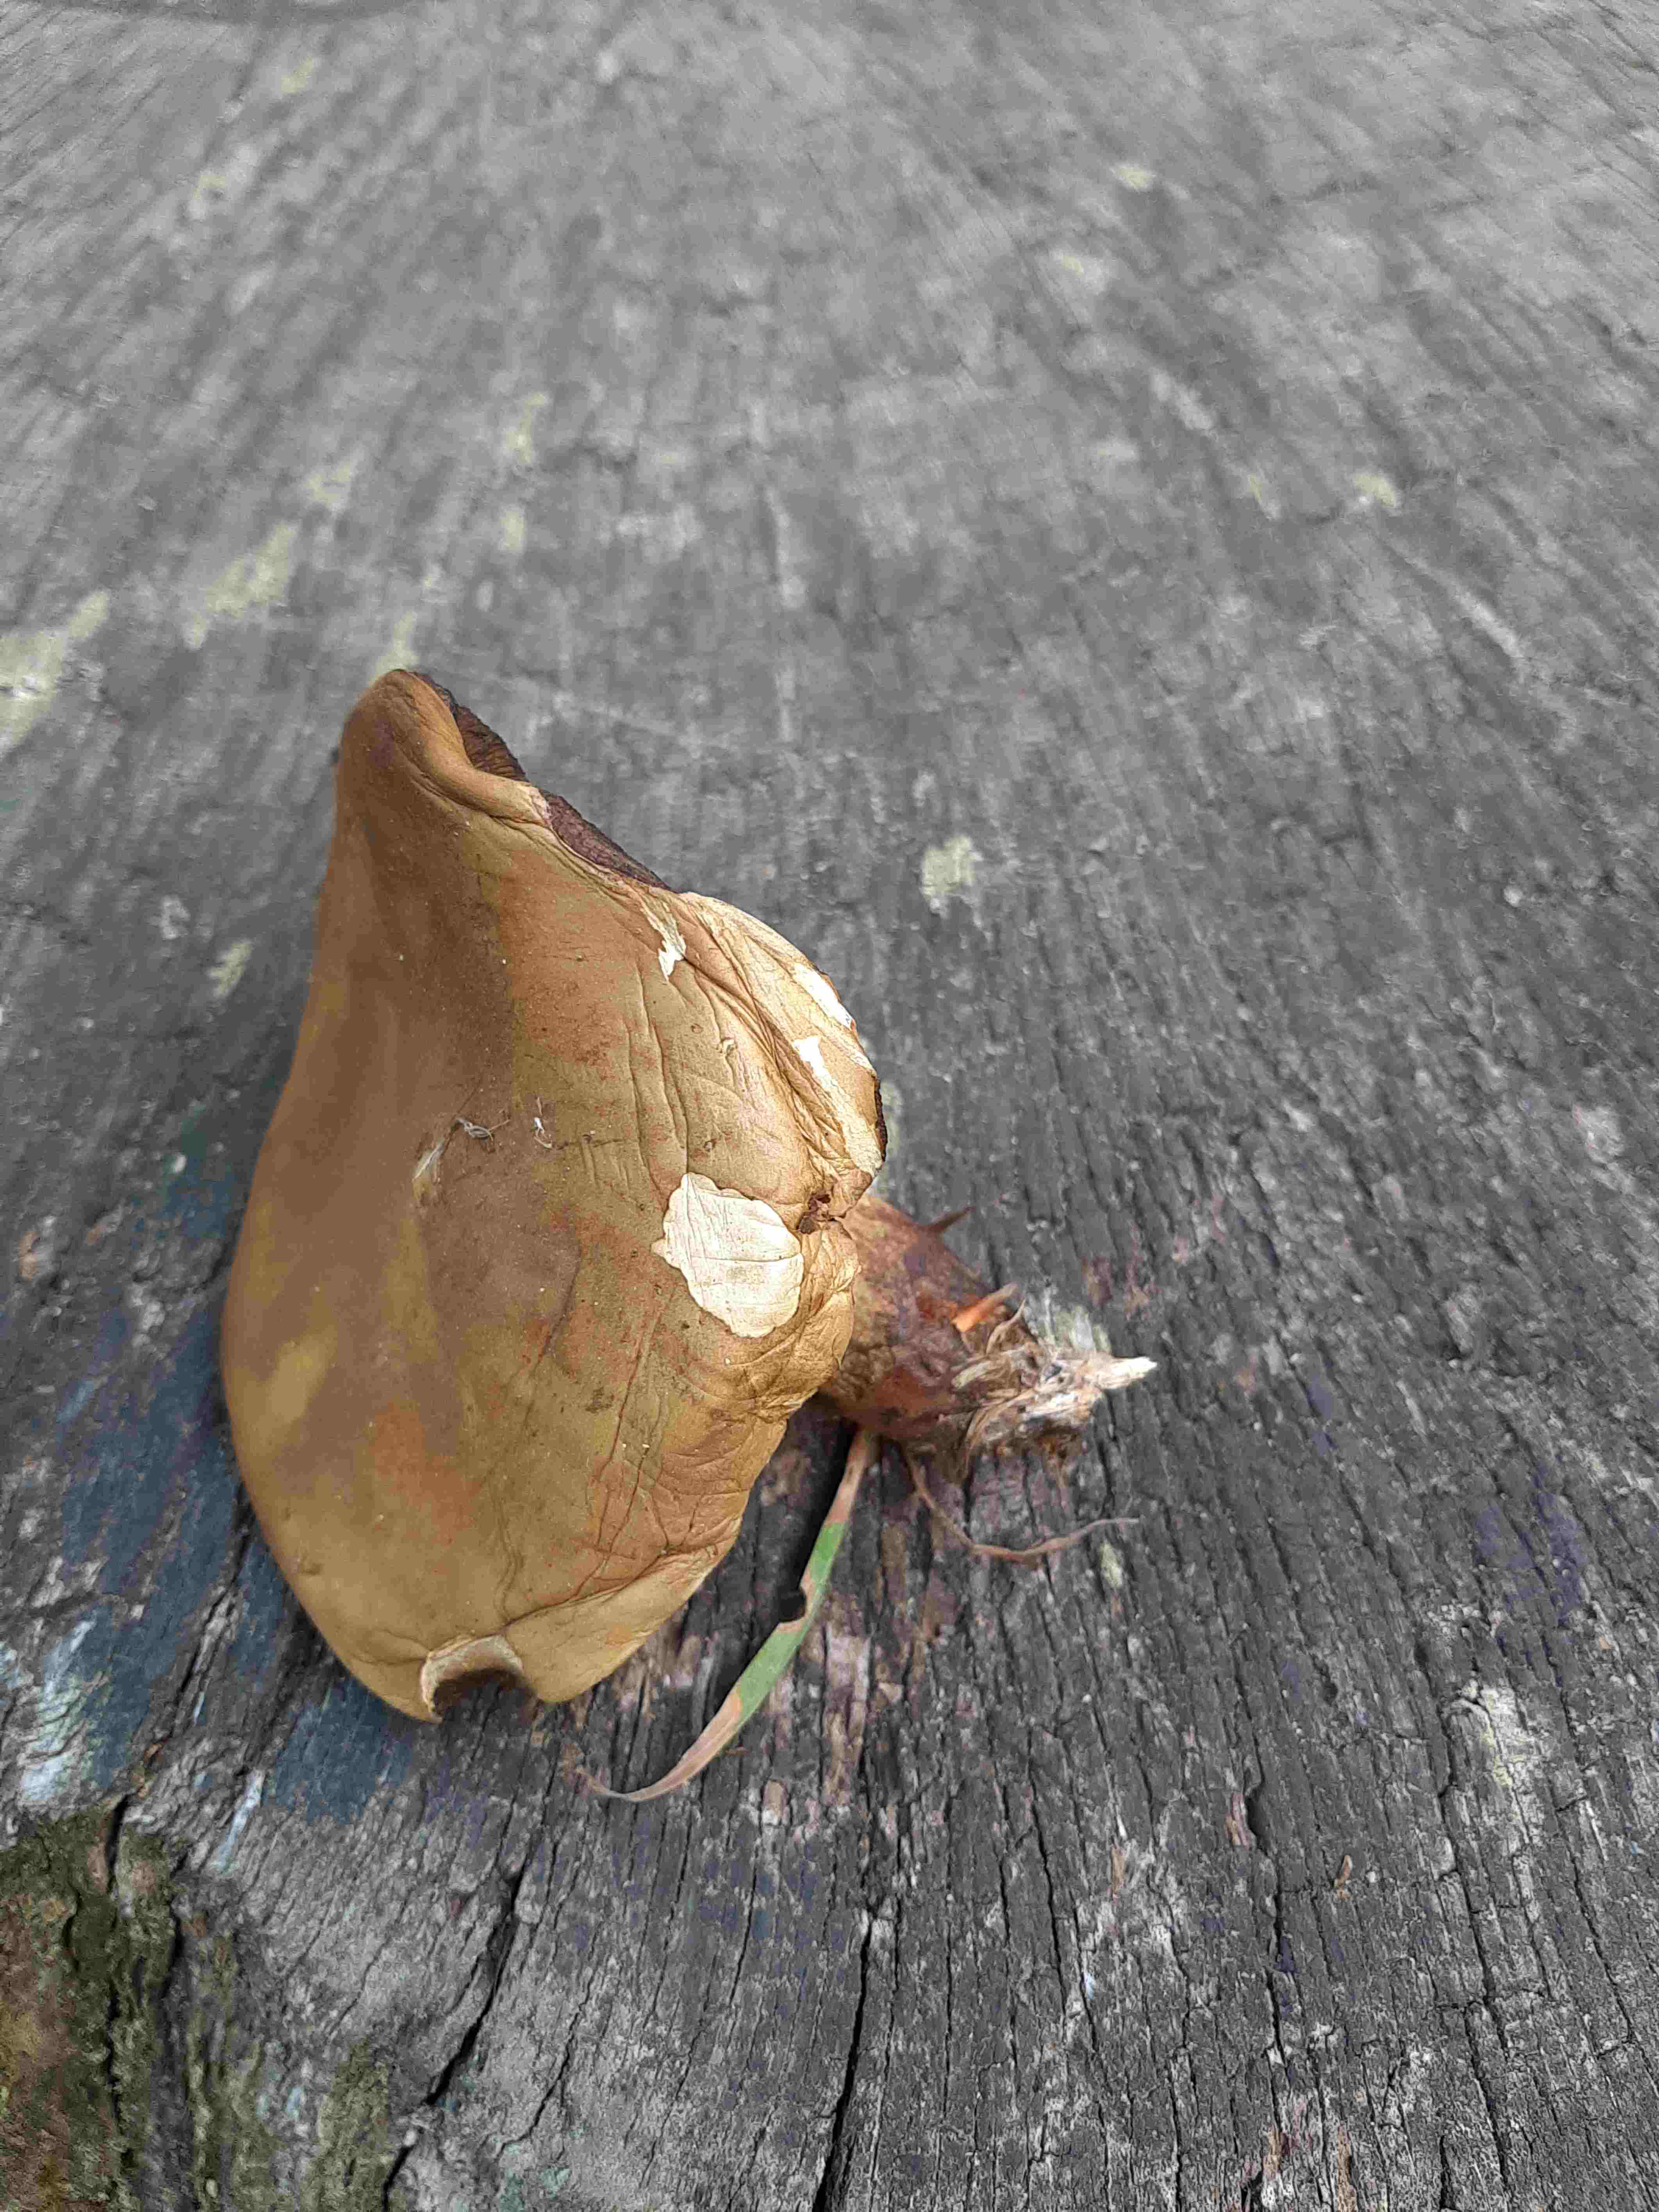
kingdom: Fungi
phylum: Basidiomycota
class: Agaricomycetes
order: Boletales
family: Boletaceae
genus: Suillellus
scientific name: Suillellus luridus
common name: netstokket indigorørhat
